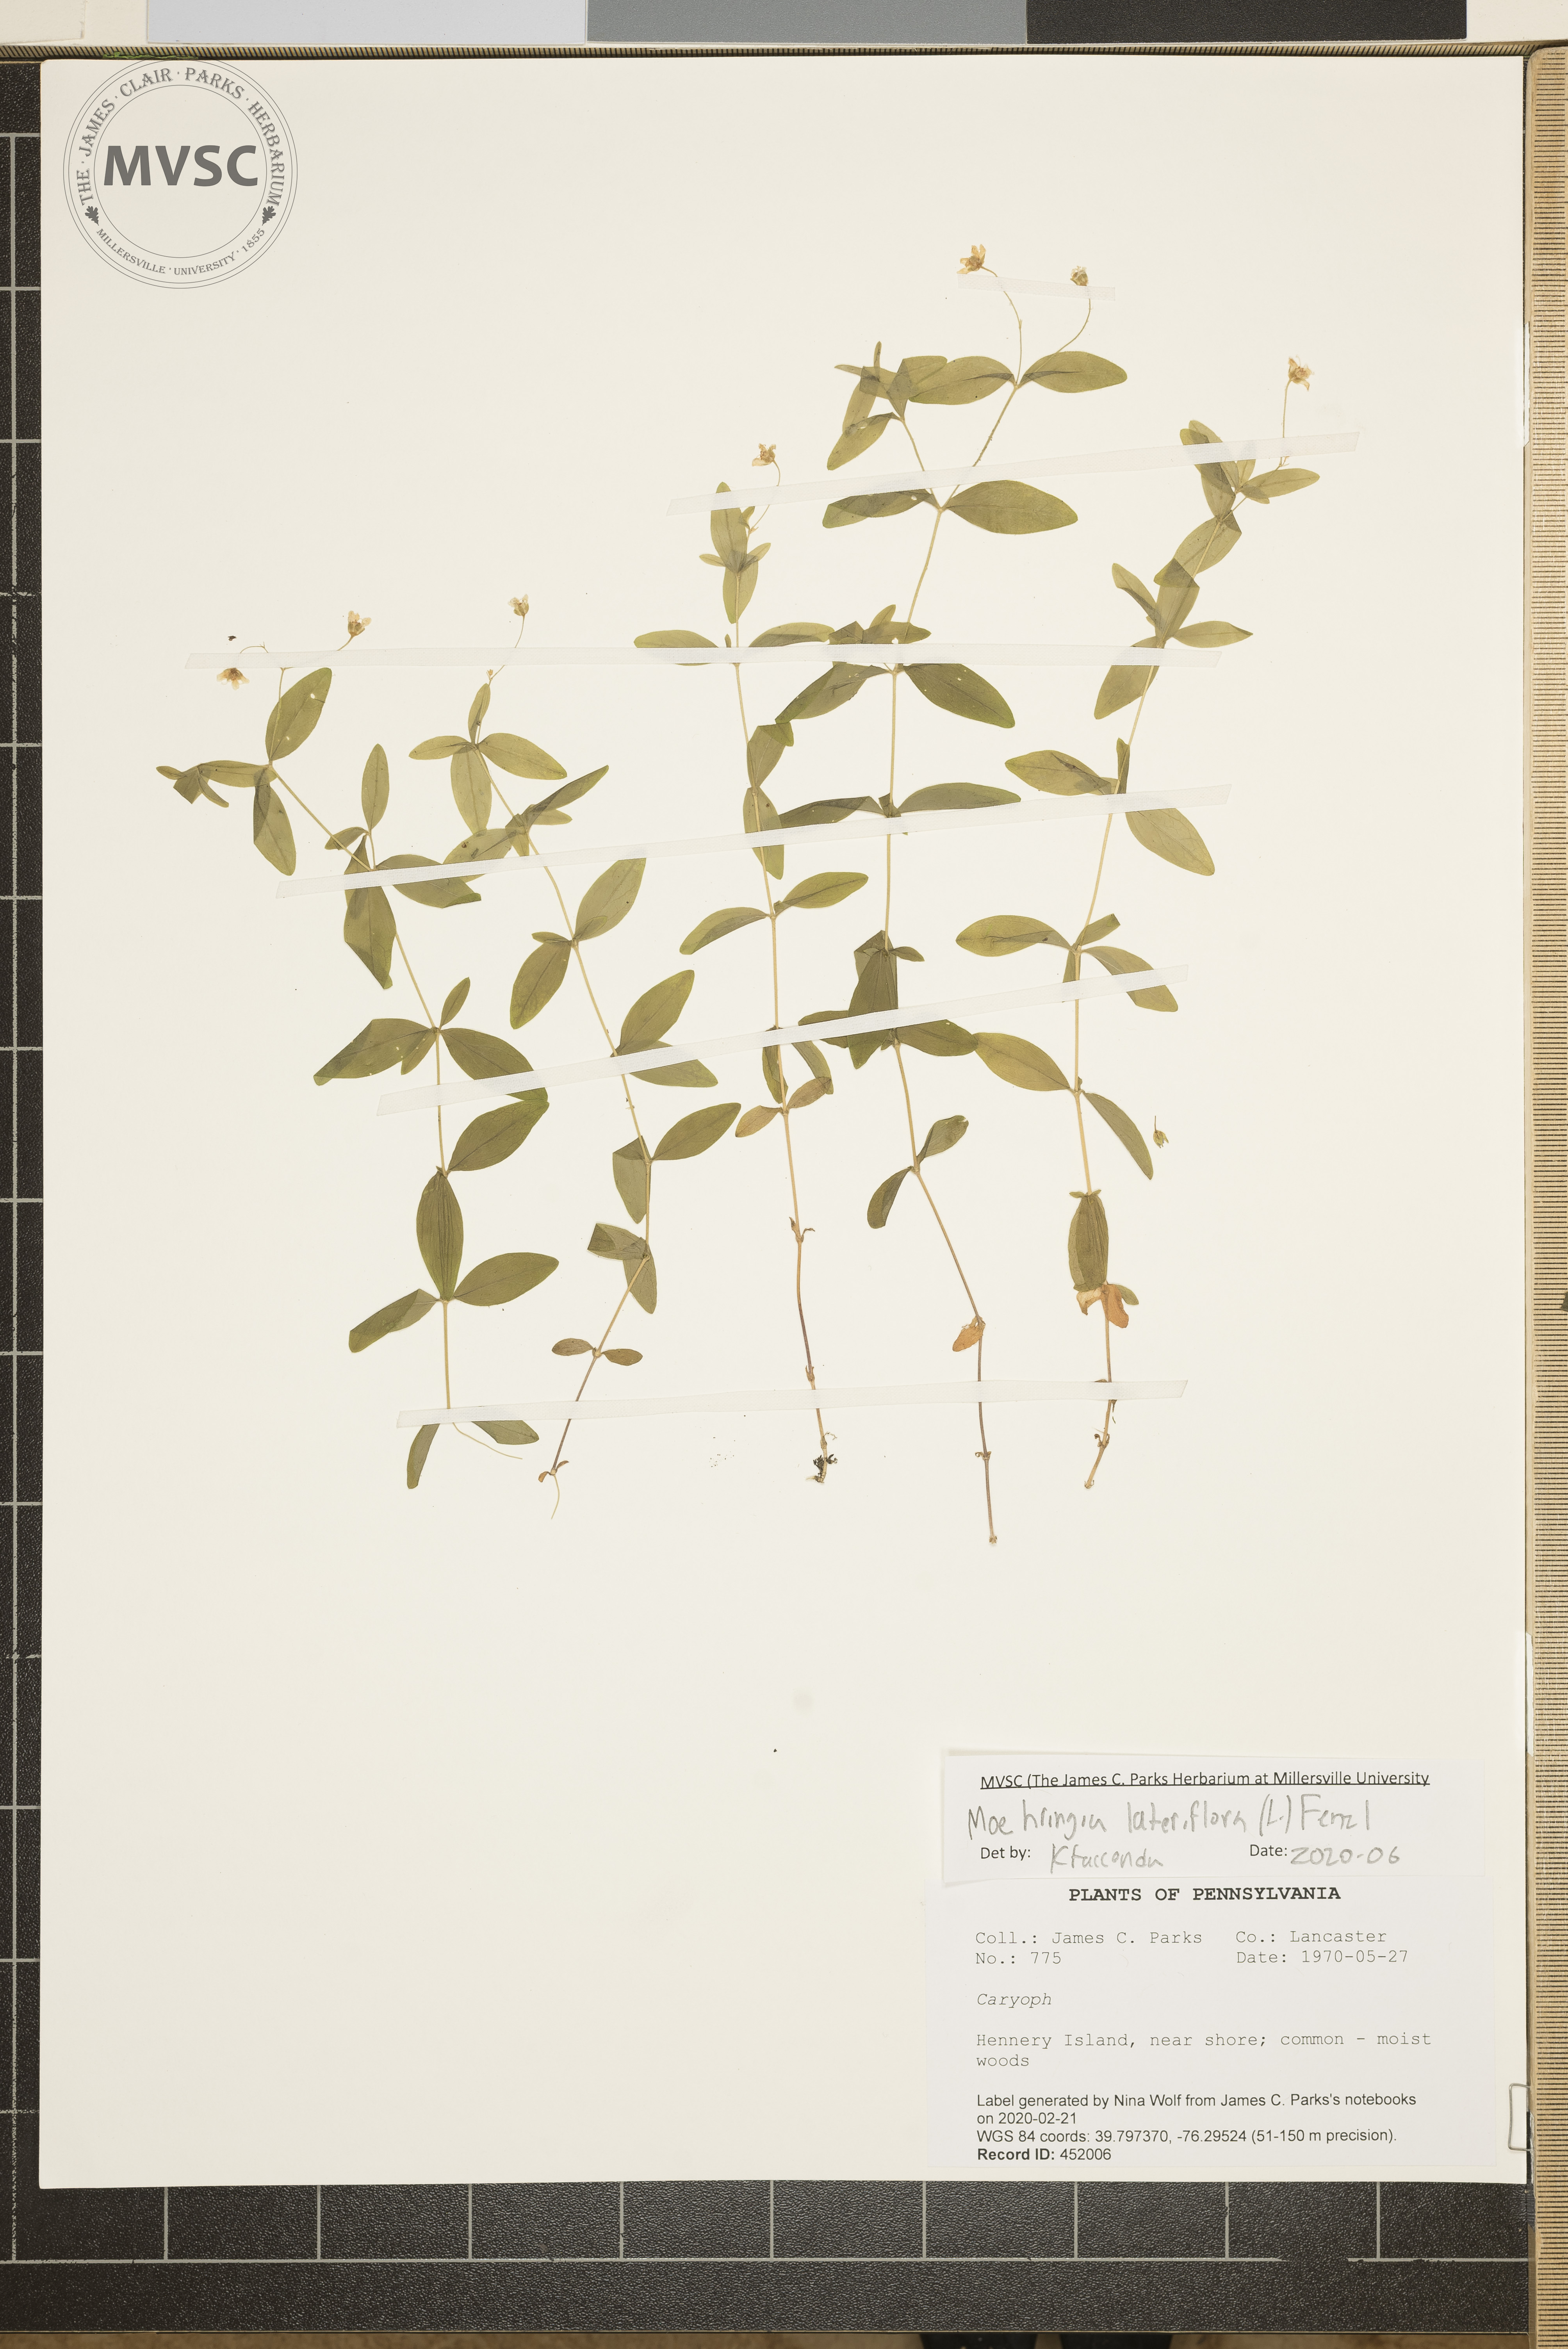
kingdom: Plantae
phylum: Tracheophyta
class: Magnoliopsida
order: Caryophyllales
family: Caryophyllaceae
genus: Moehringia
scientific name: Moehringia lateriflora
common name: Blunt-leaved sandwort
